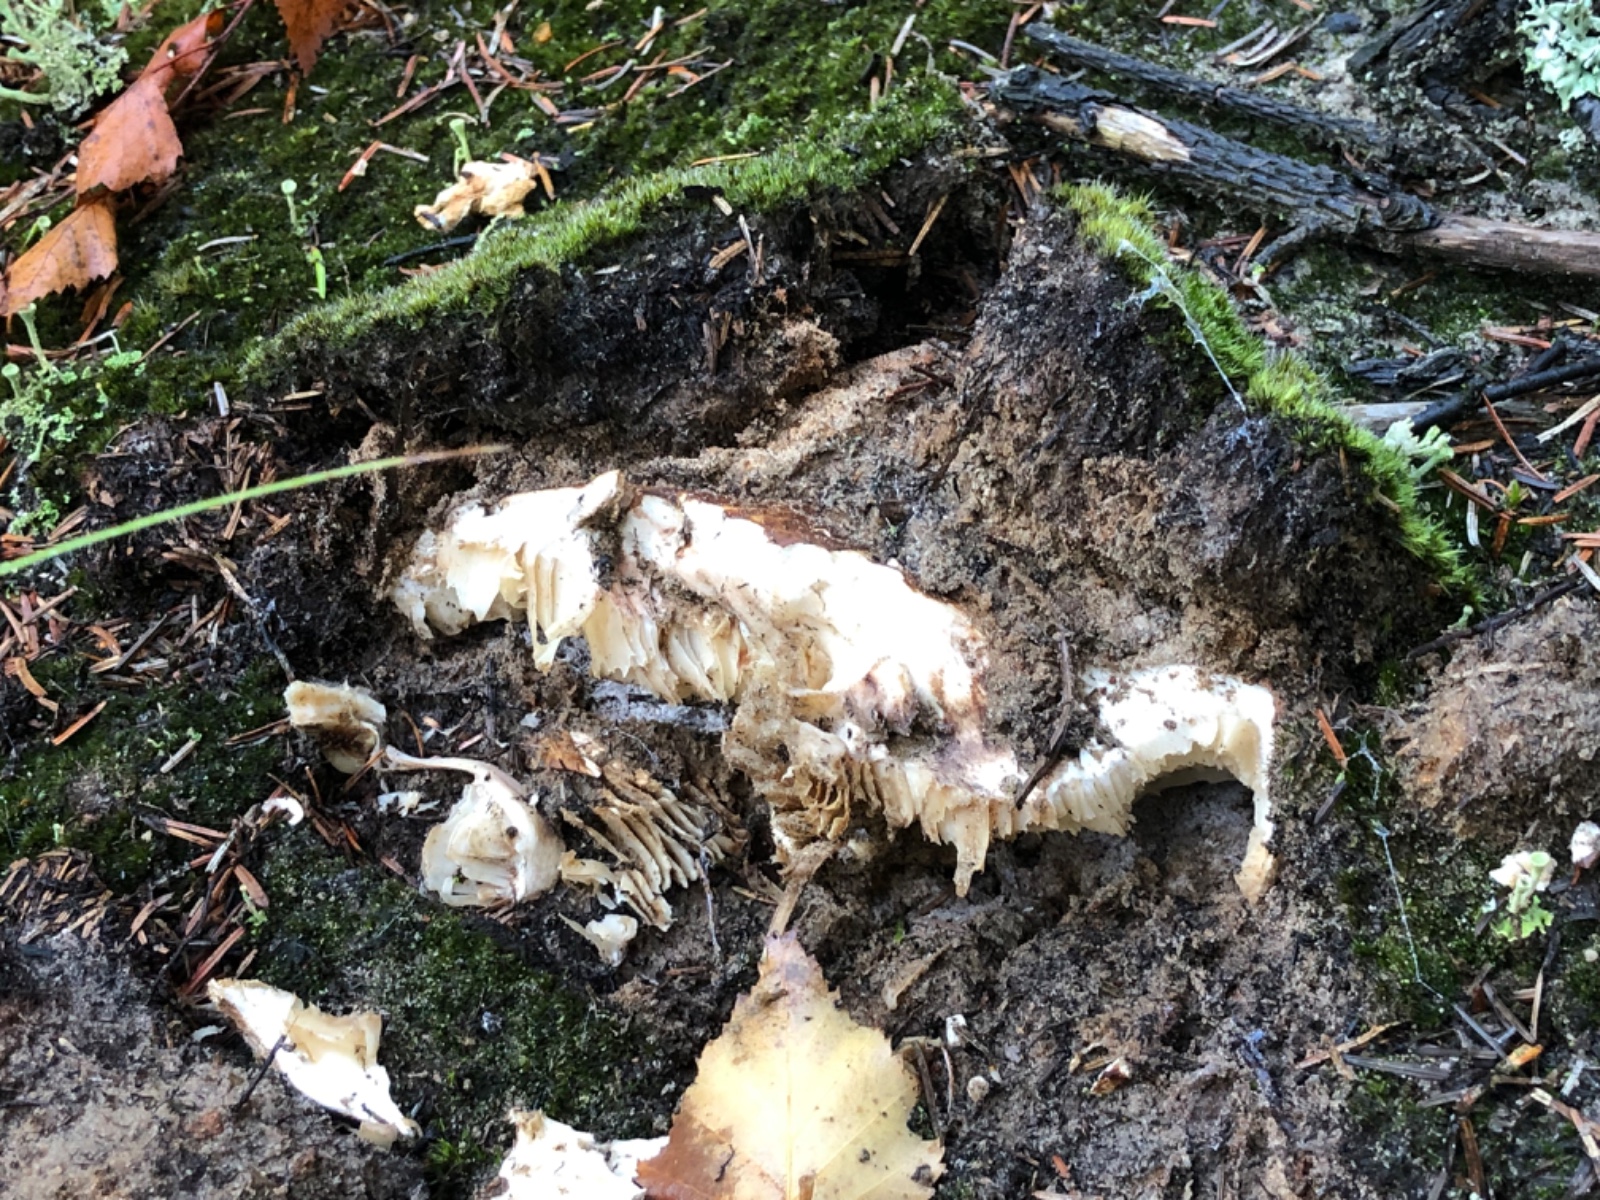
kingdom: Fungi
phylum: Basidiomycota
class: Agaricomycetes
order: Agaricales
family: Tricholomataceae
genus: Tricholoma
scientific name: Tricholoma matsutake
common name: duft-ridderhat
